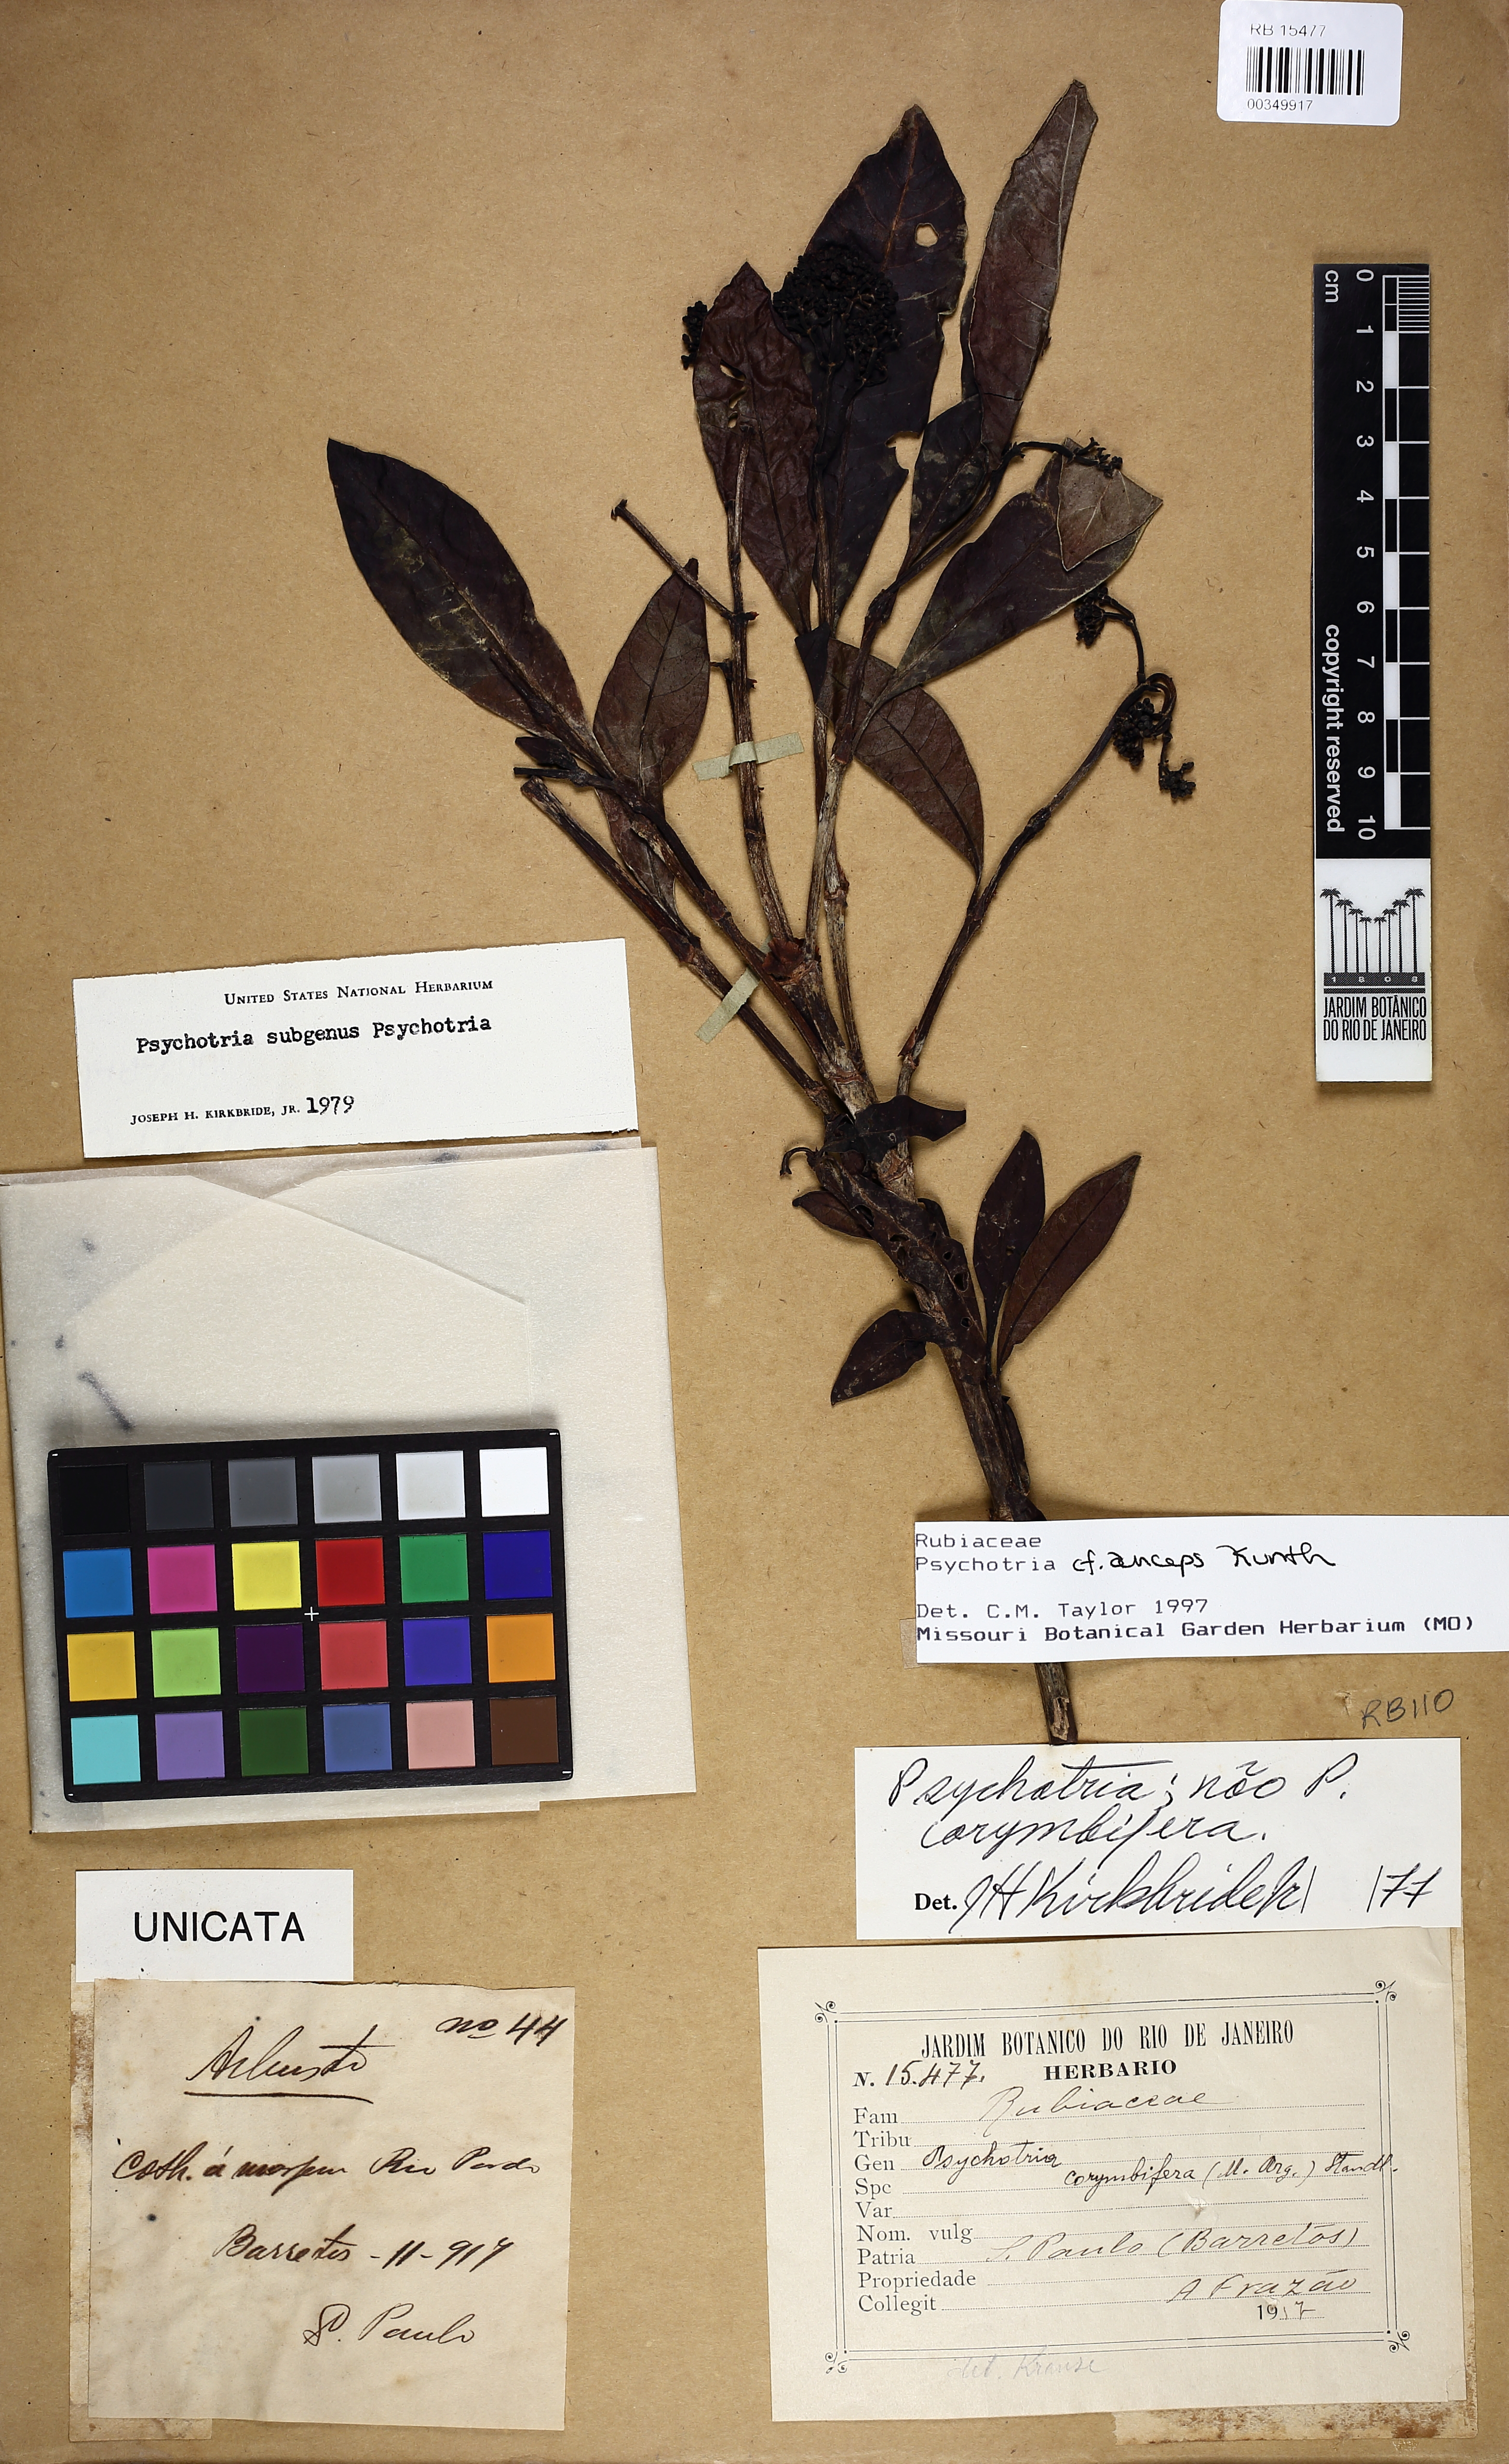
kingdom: Plantae
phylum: Tracheophyta
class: Magnoliopsida
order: Gentianales
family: Rubiaceae
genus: Psychotria
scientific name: Psychotria anceps
